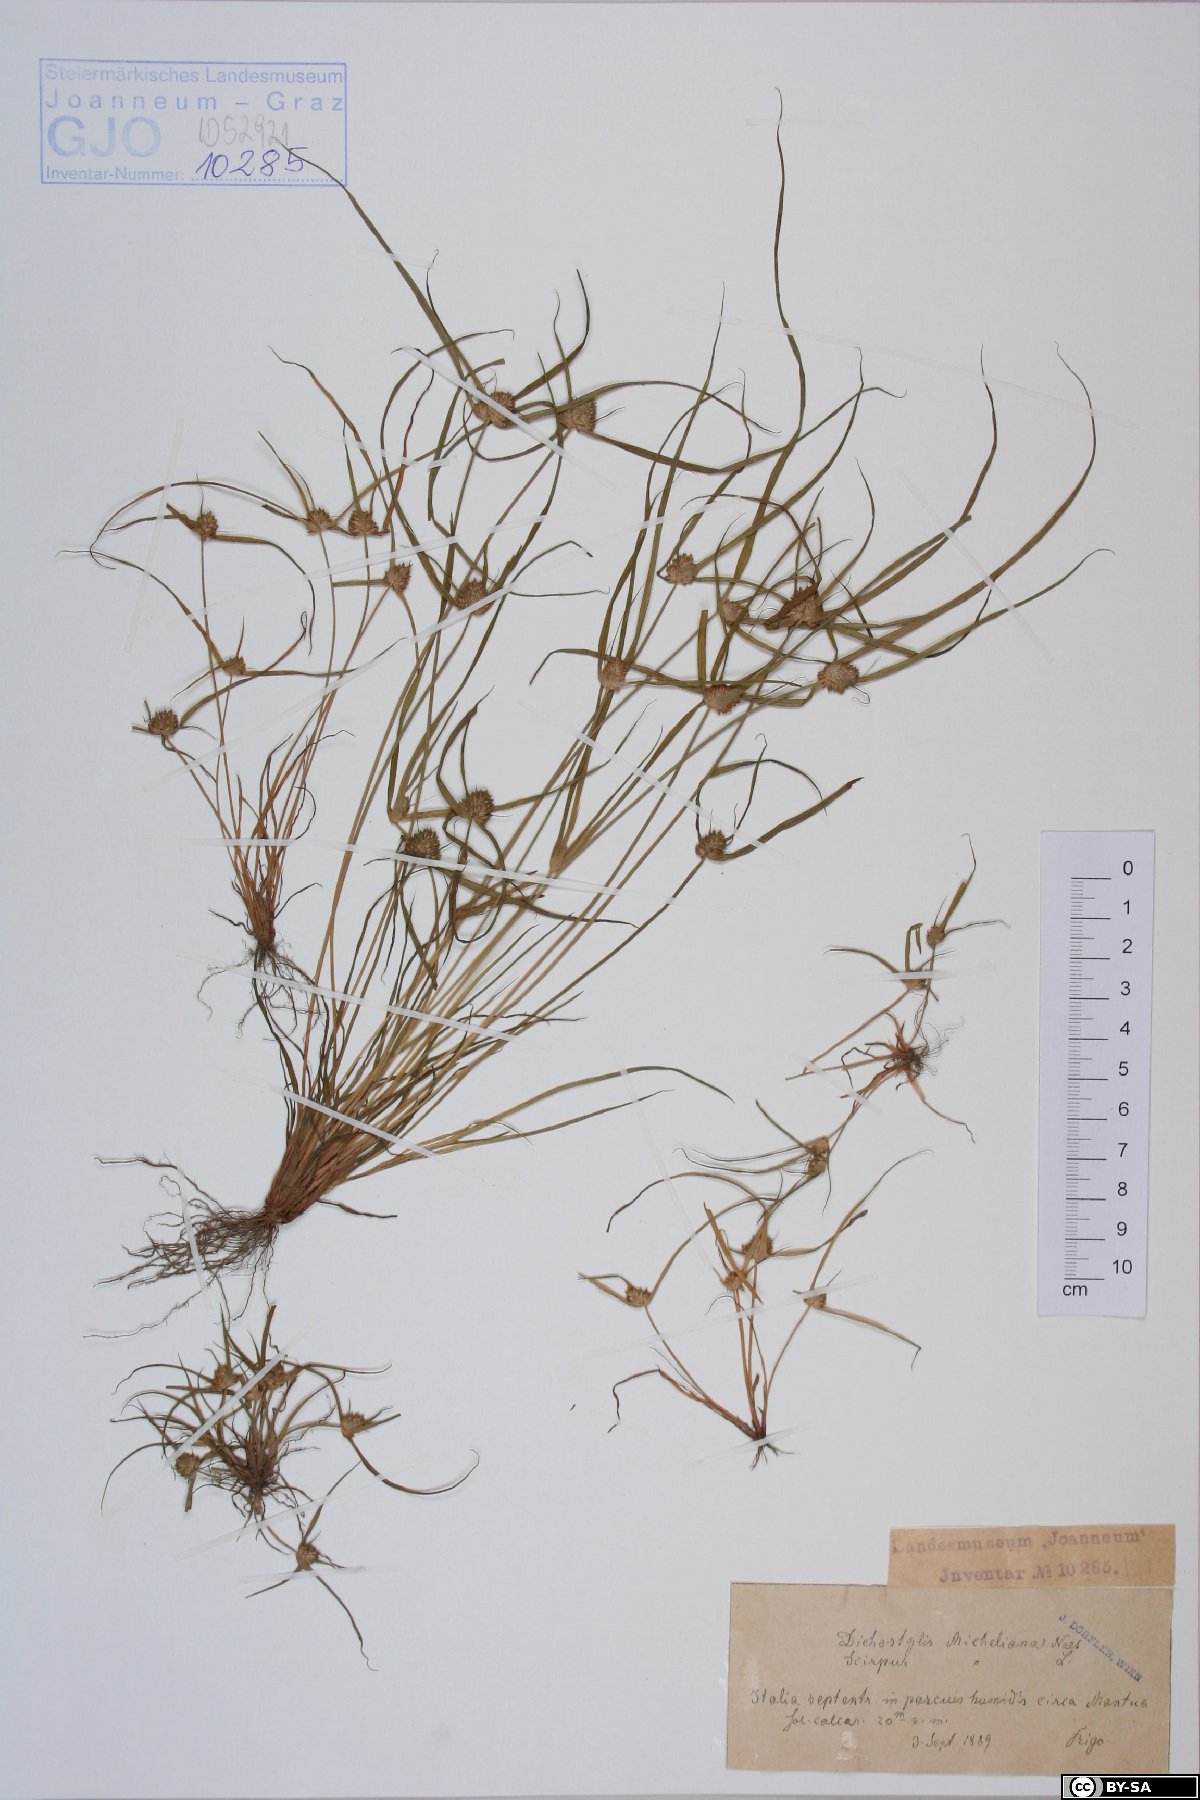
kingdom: Plantae
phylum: Tracheophyta
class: Liliopsida
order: Poales
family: Cyperaceae
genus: Cyperus
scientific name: Cyperus michelianus
